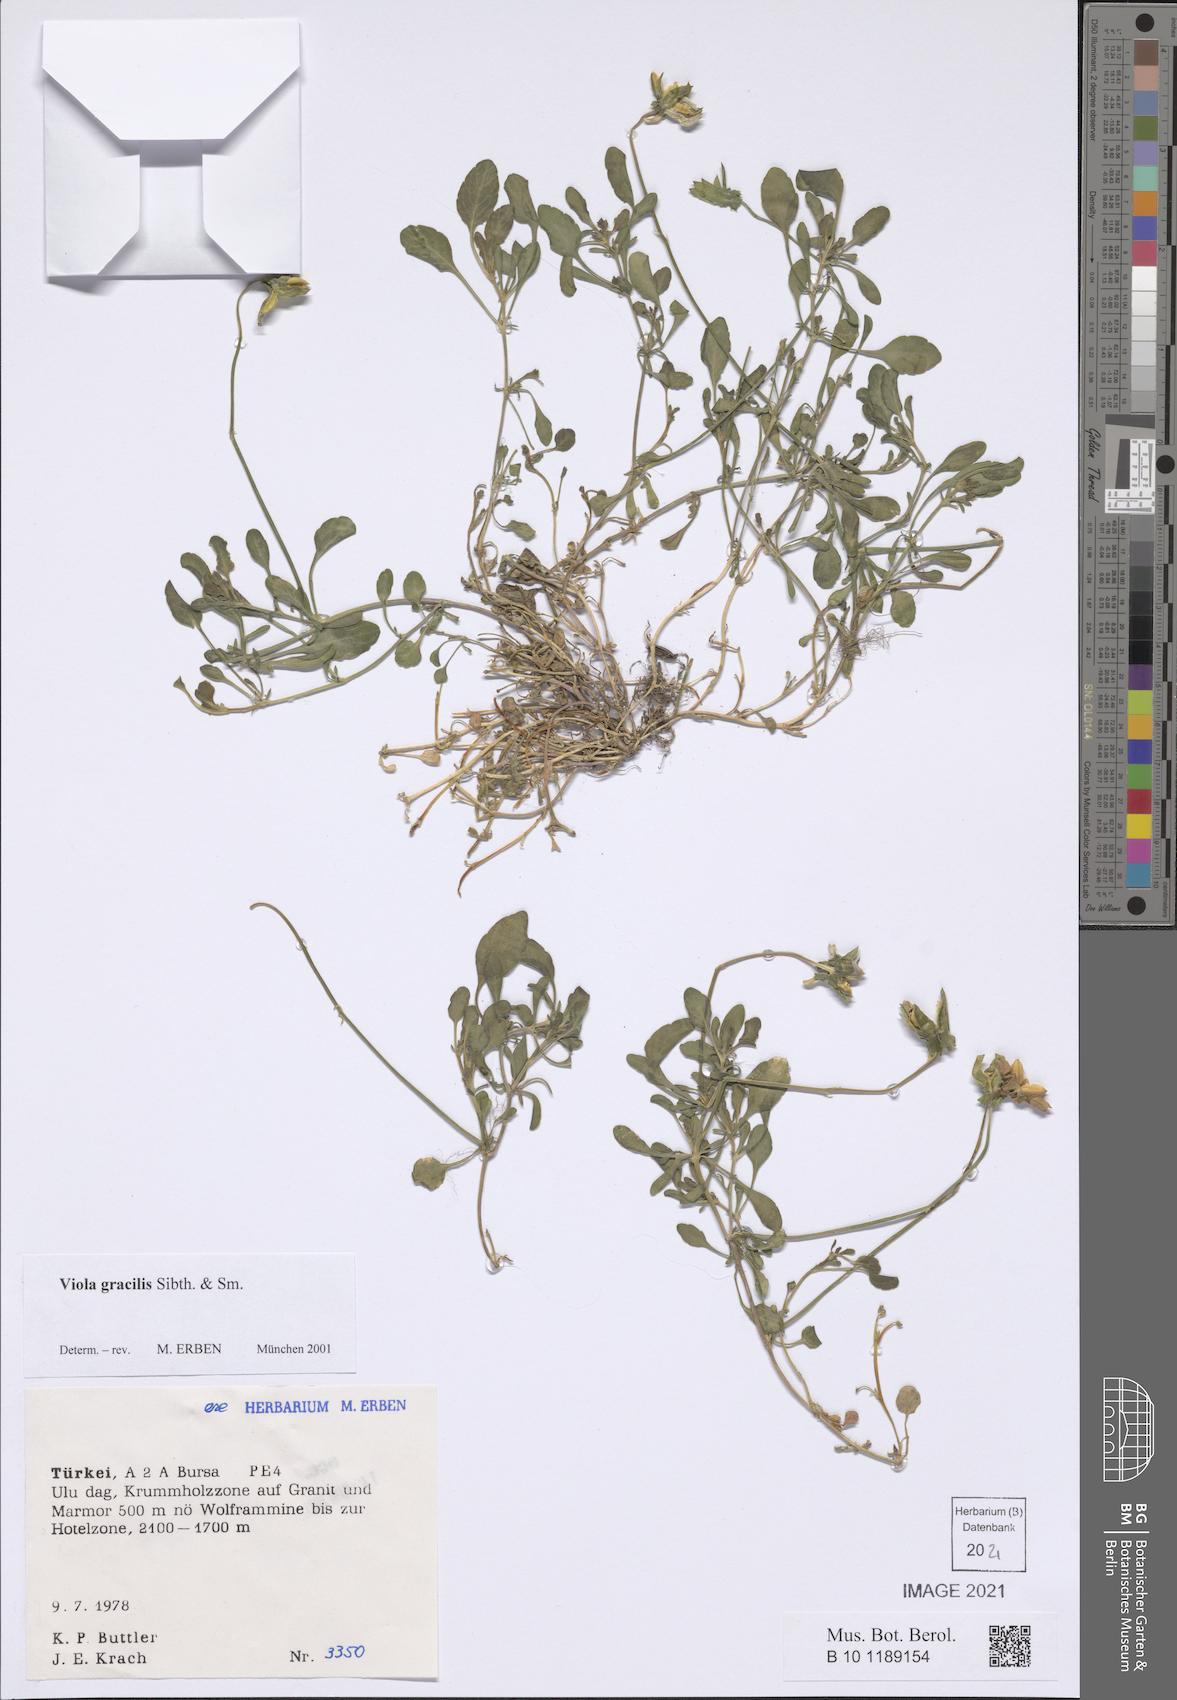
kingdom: Plantae
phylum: Tracheophyta
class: Magnoliopsida
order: Malpighiales
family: Violaceae
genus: Viola
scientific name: Viola gracilis
